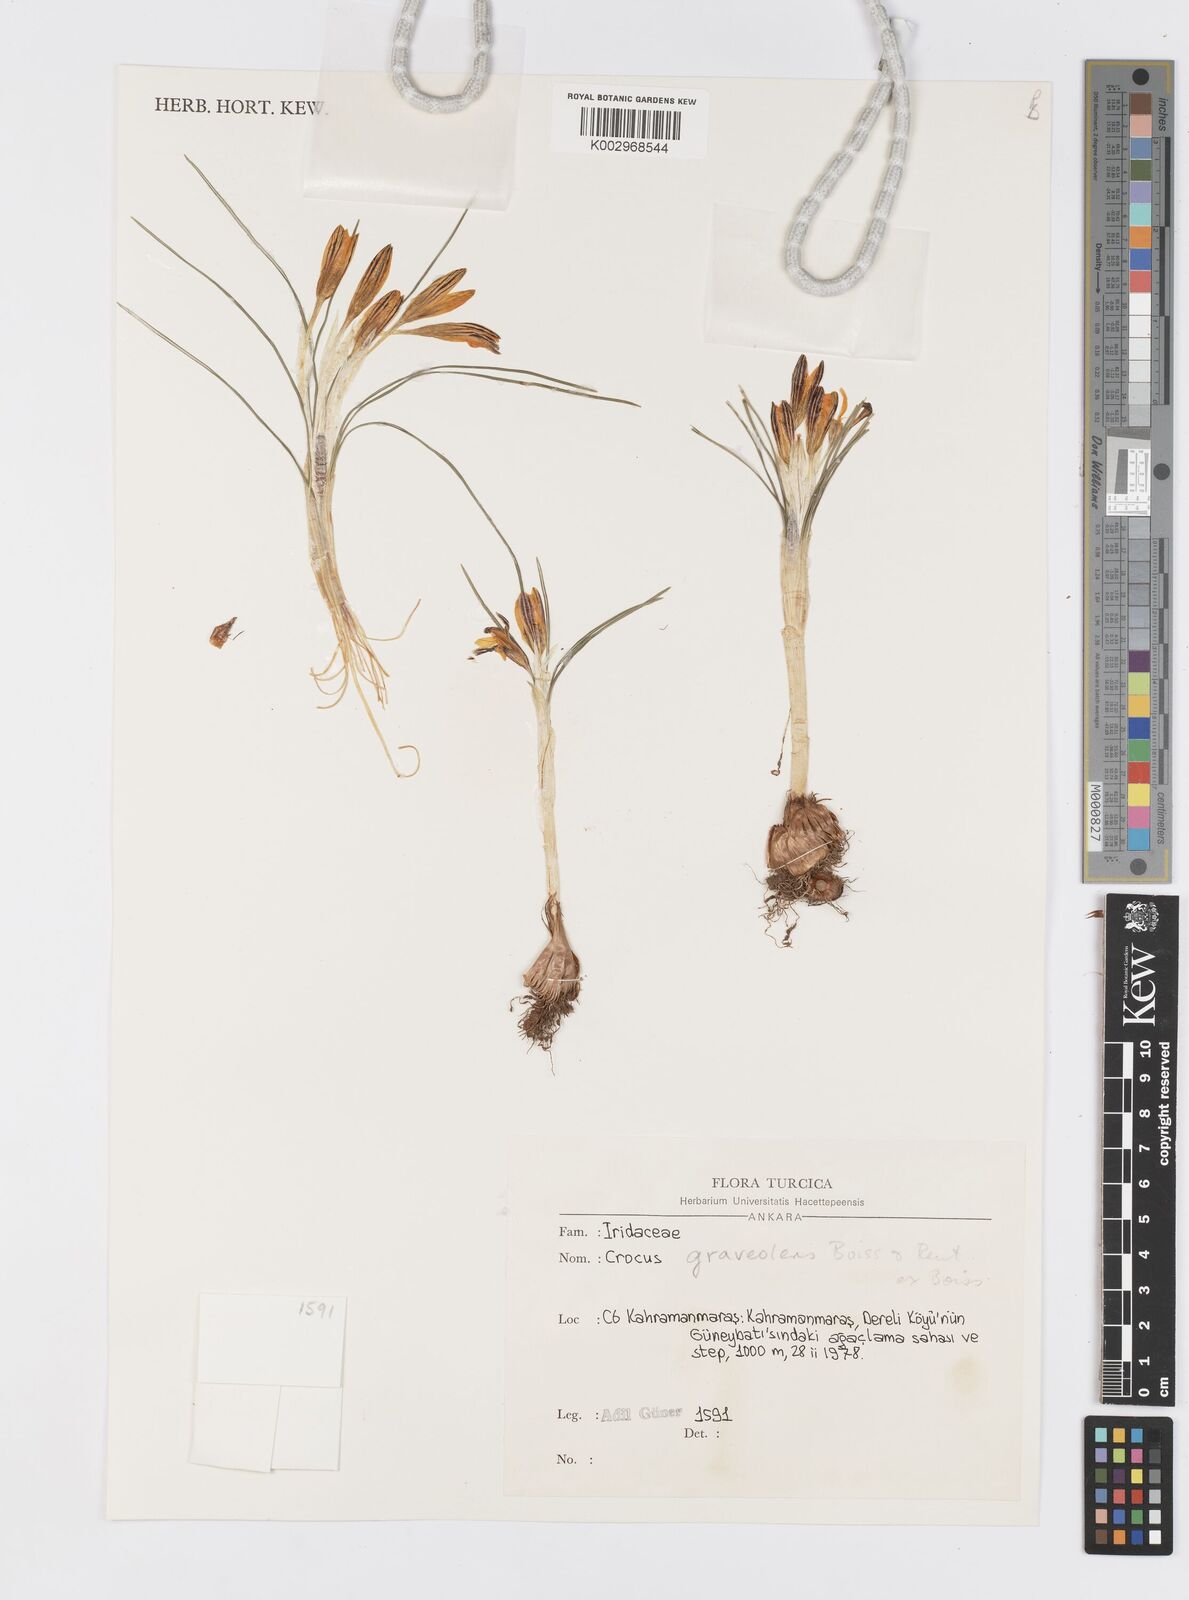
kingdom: Plantae
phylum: Tracheophyta
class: Liliopsida
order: Asparagales
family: Iridaceae
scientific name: Iridaceae
